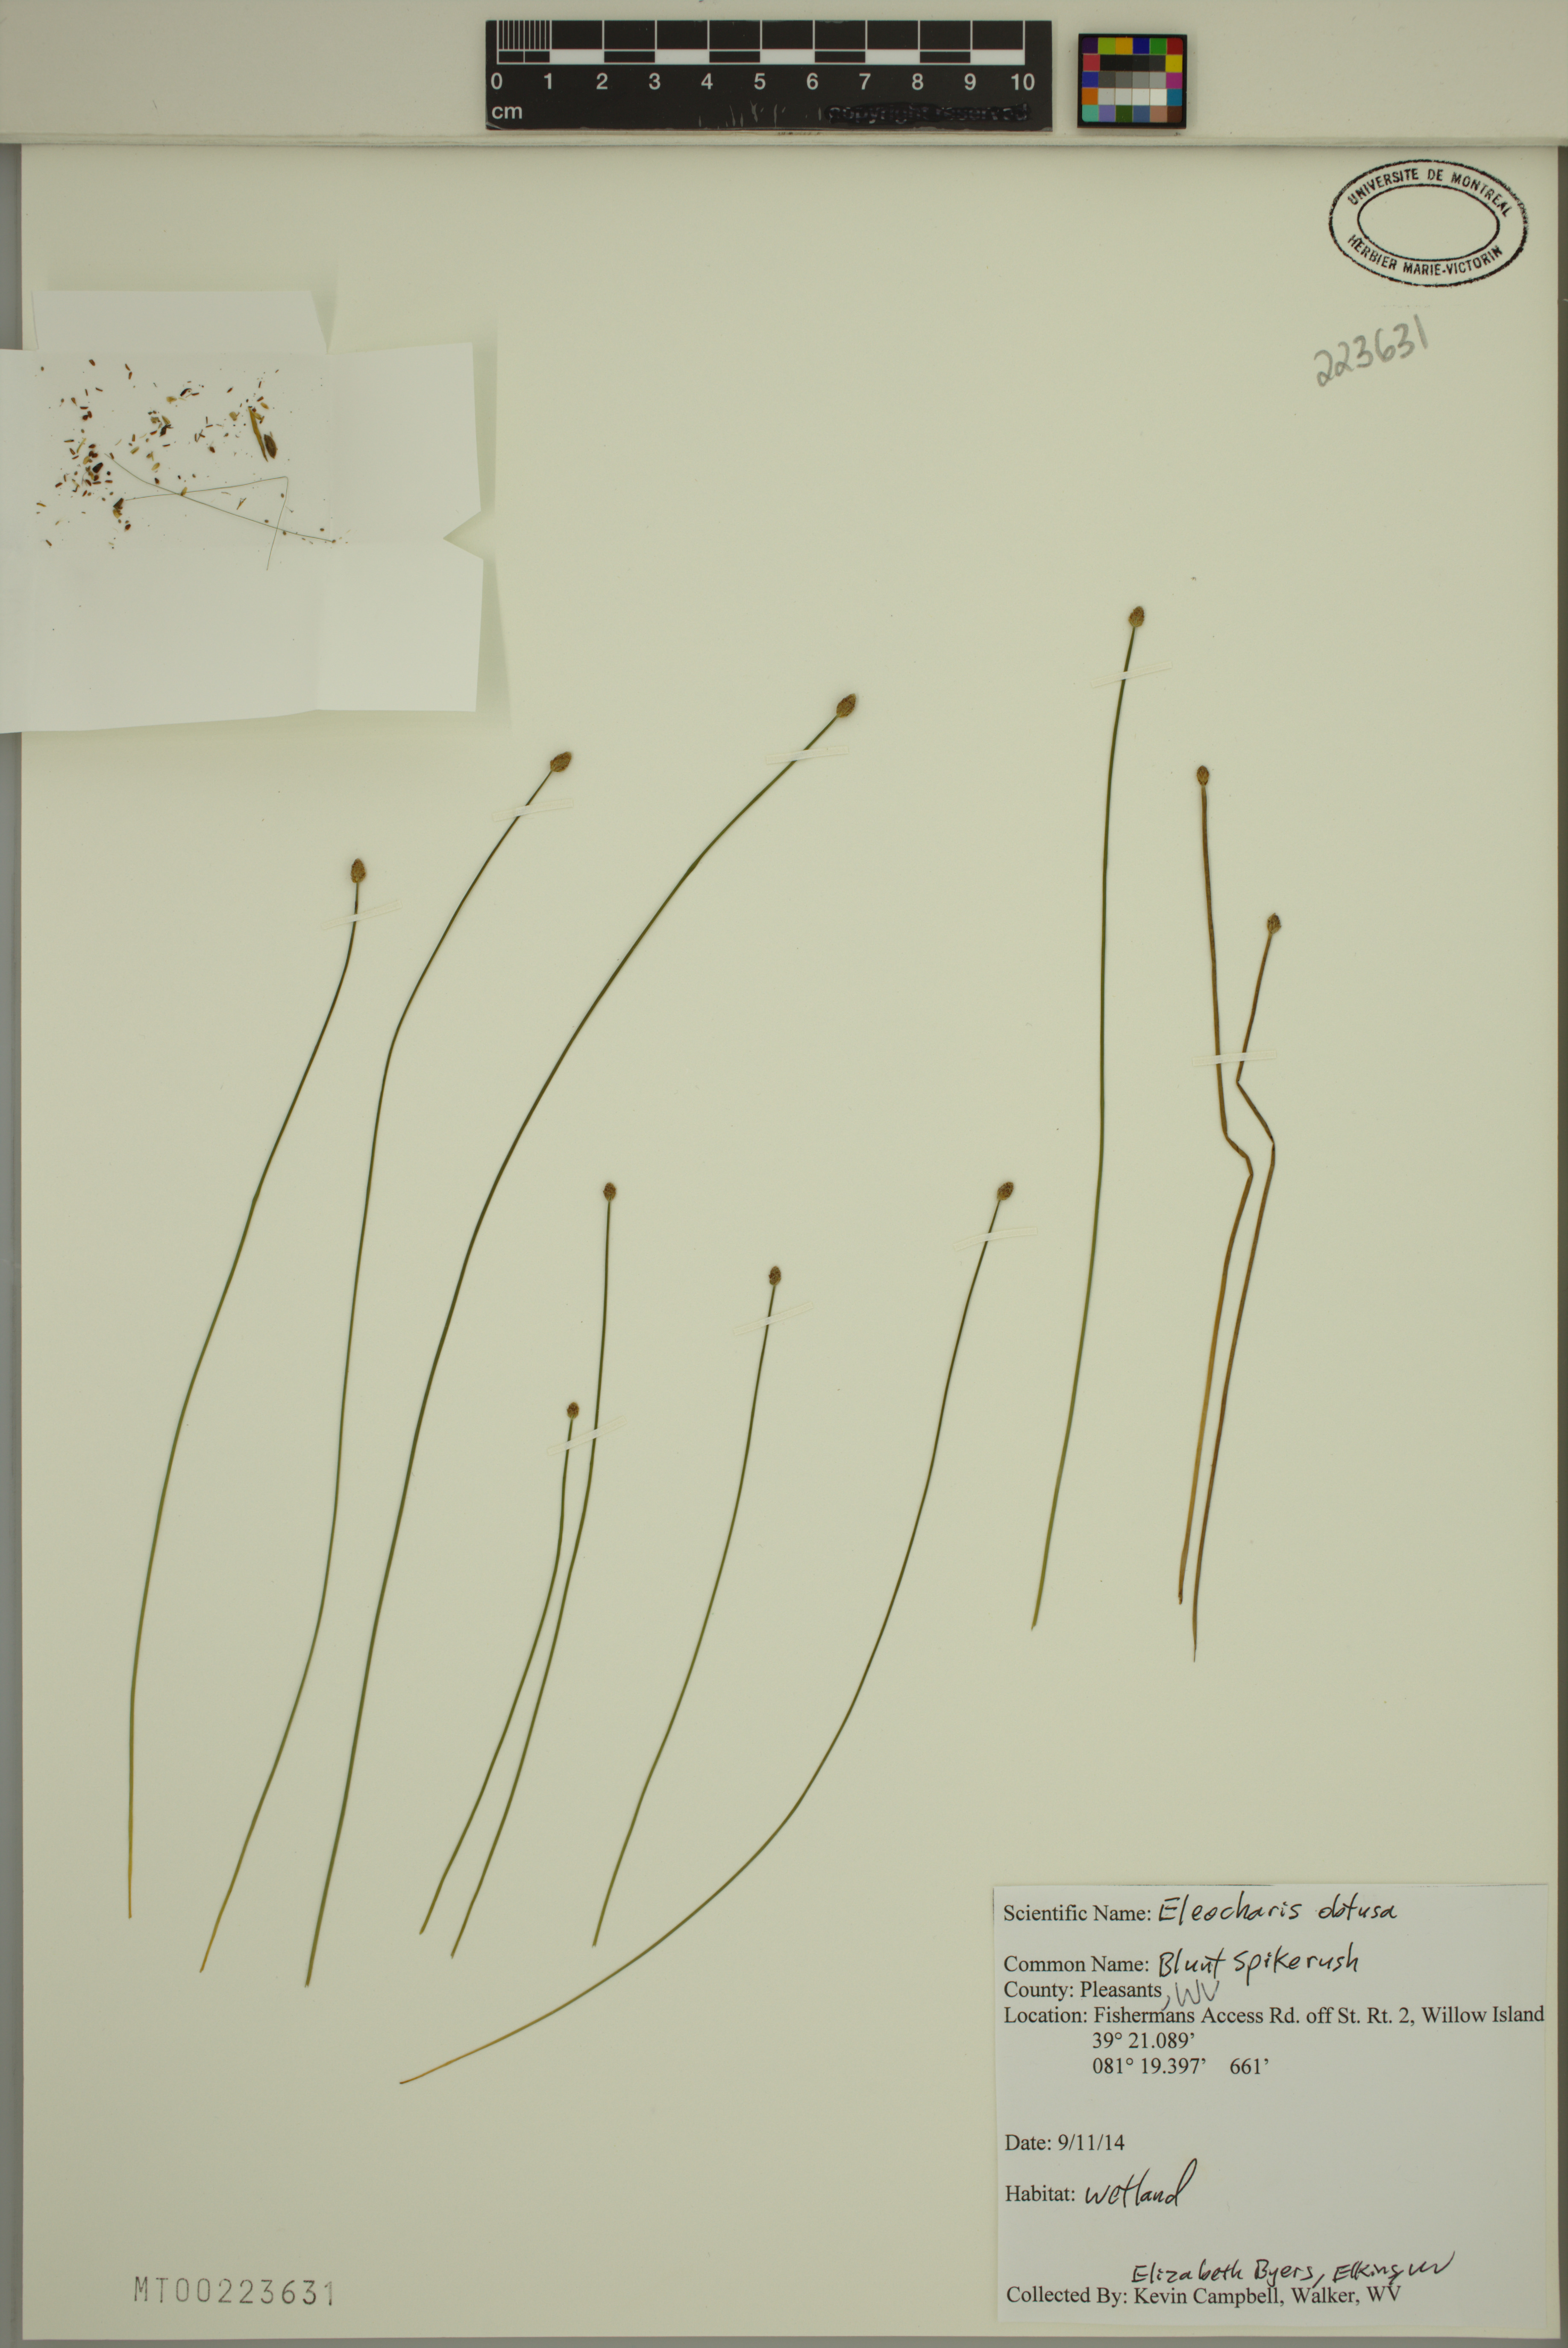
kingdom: Plantae
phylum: Tracheophyta
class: Liliopsida
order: Poales
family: Cyperaceae
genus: Eleocharis
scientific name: Eleocharis obtusa
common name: Blunt spikerush
